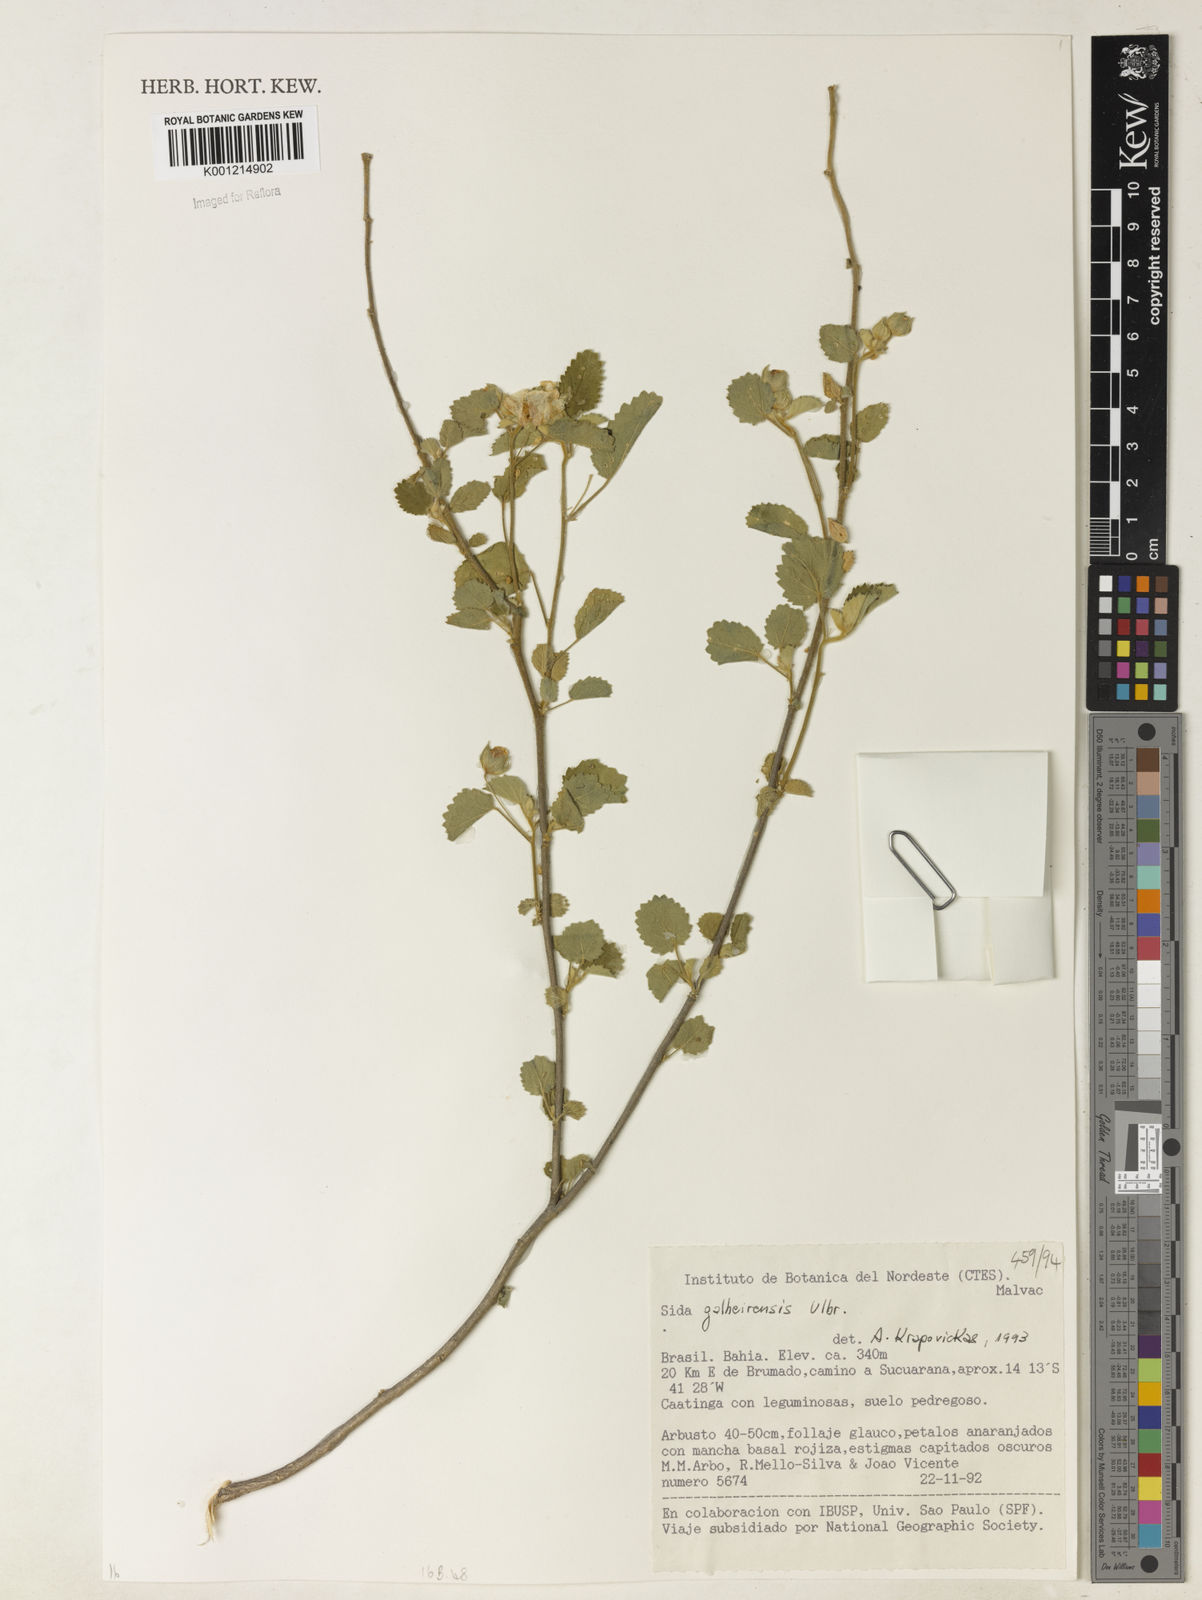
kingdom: Plantae
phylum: Tracheophyta
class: Magnoliopsida
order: Malvales
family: Malvaceae
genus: Sida
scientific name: Sida galheirensis
